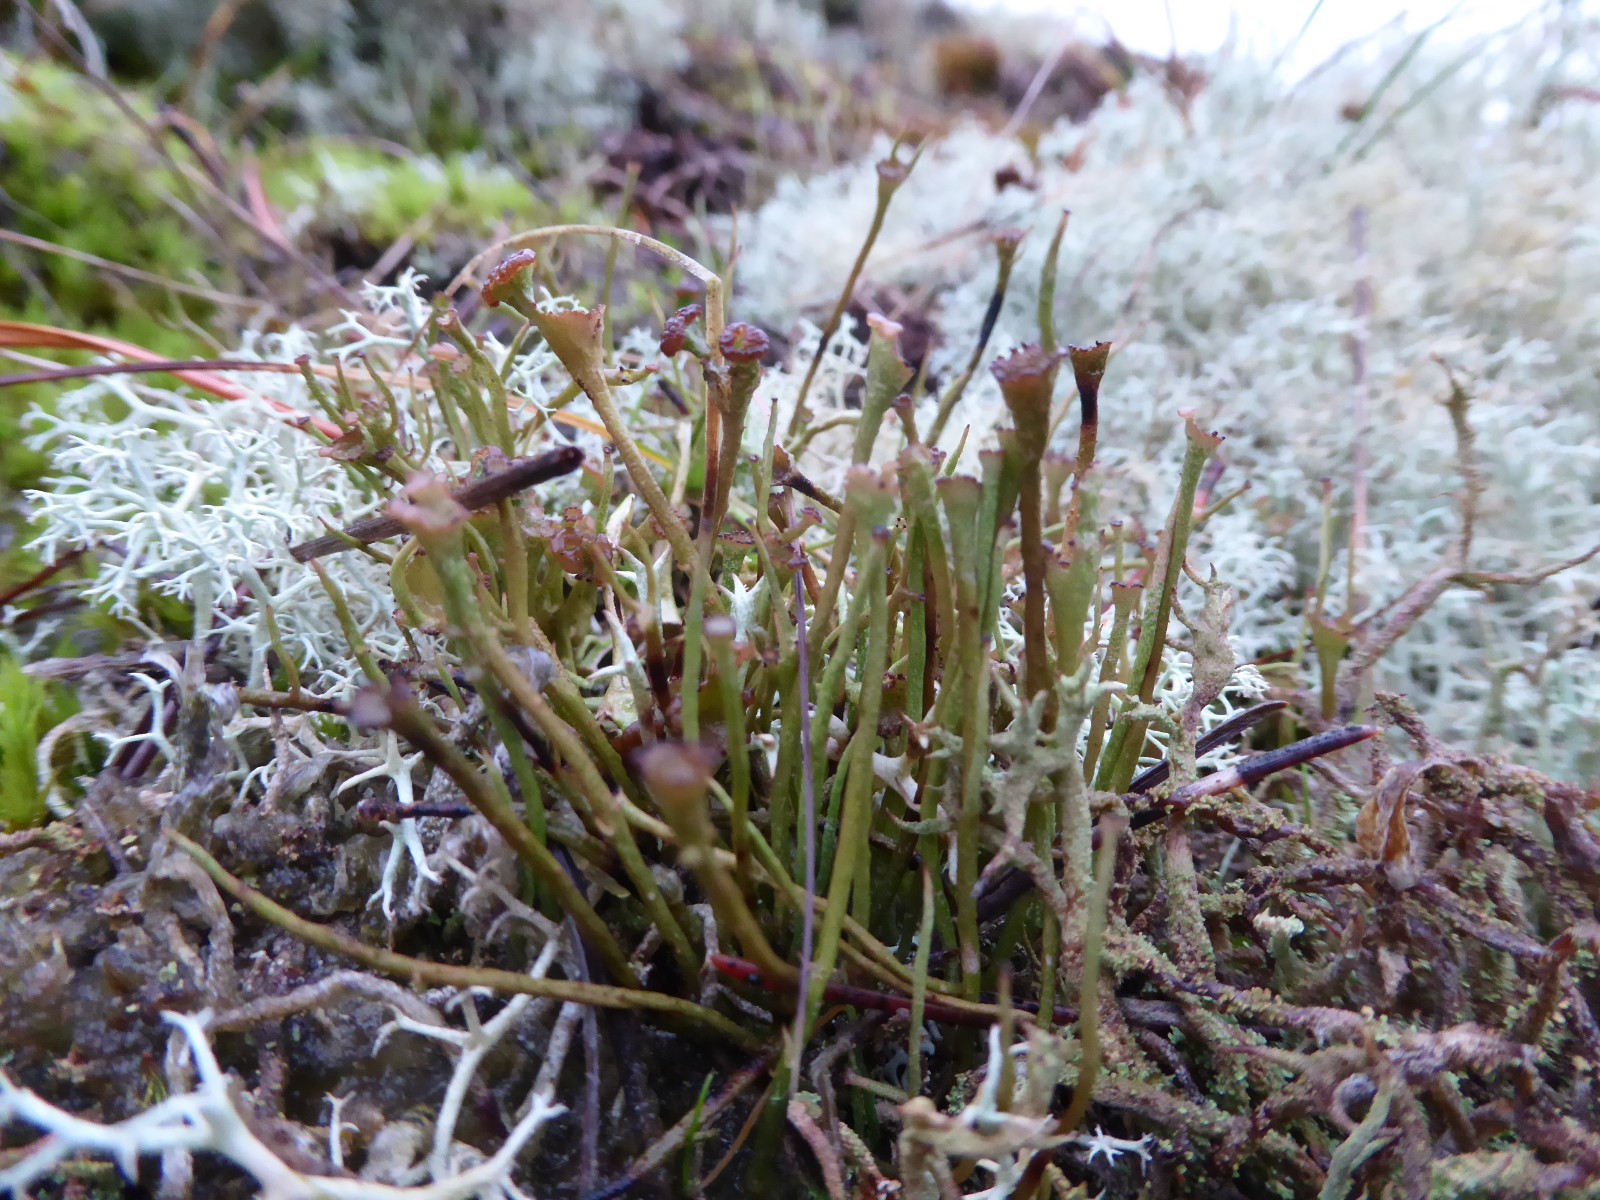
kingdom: Fungi
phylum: Ascomycota
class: Lecanoromycetes
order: Lecanorales
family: Cladoniaceae
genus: Cladonia
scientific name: Cladonia gracilis
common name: slank bægerlav
